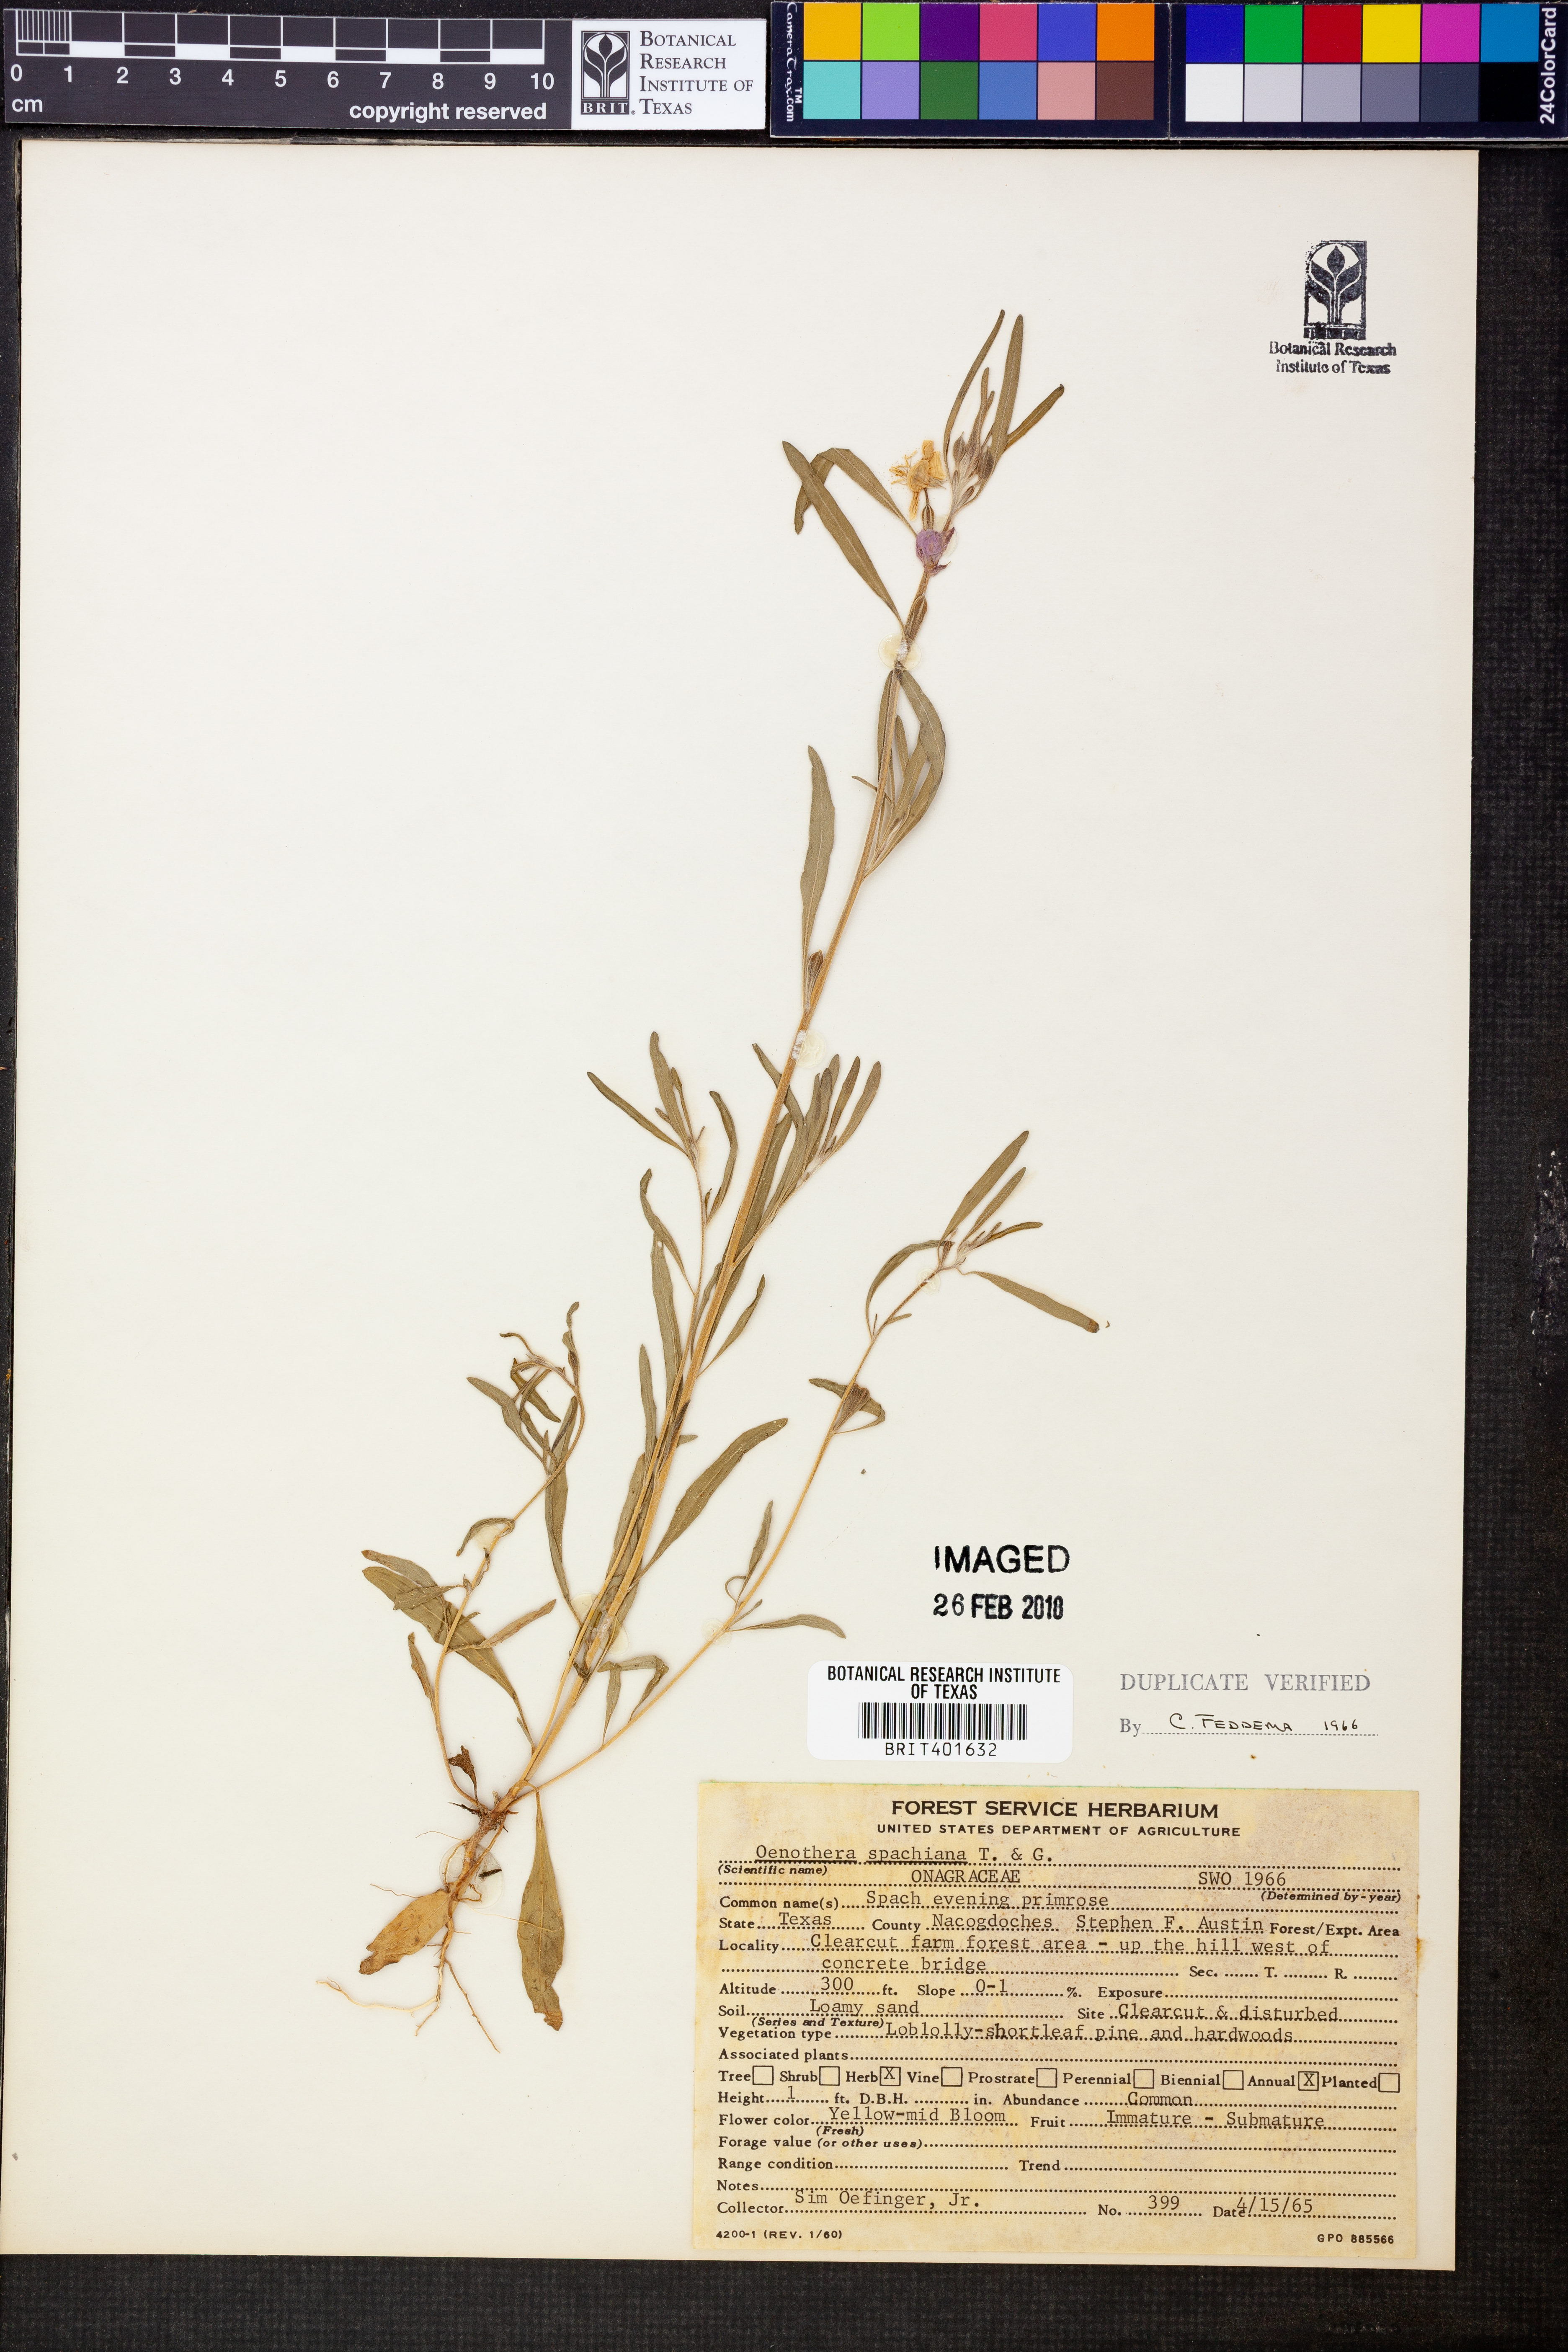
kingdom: Plantae
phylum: Tracheophyta
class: Magnoliopsida
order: Myrtales
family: Onagraceae
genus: Oenothera
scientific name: Oenothera spachiana
